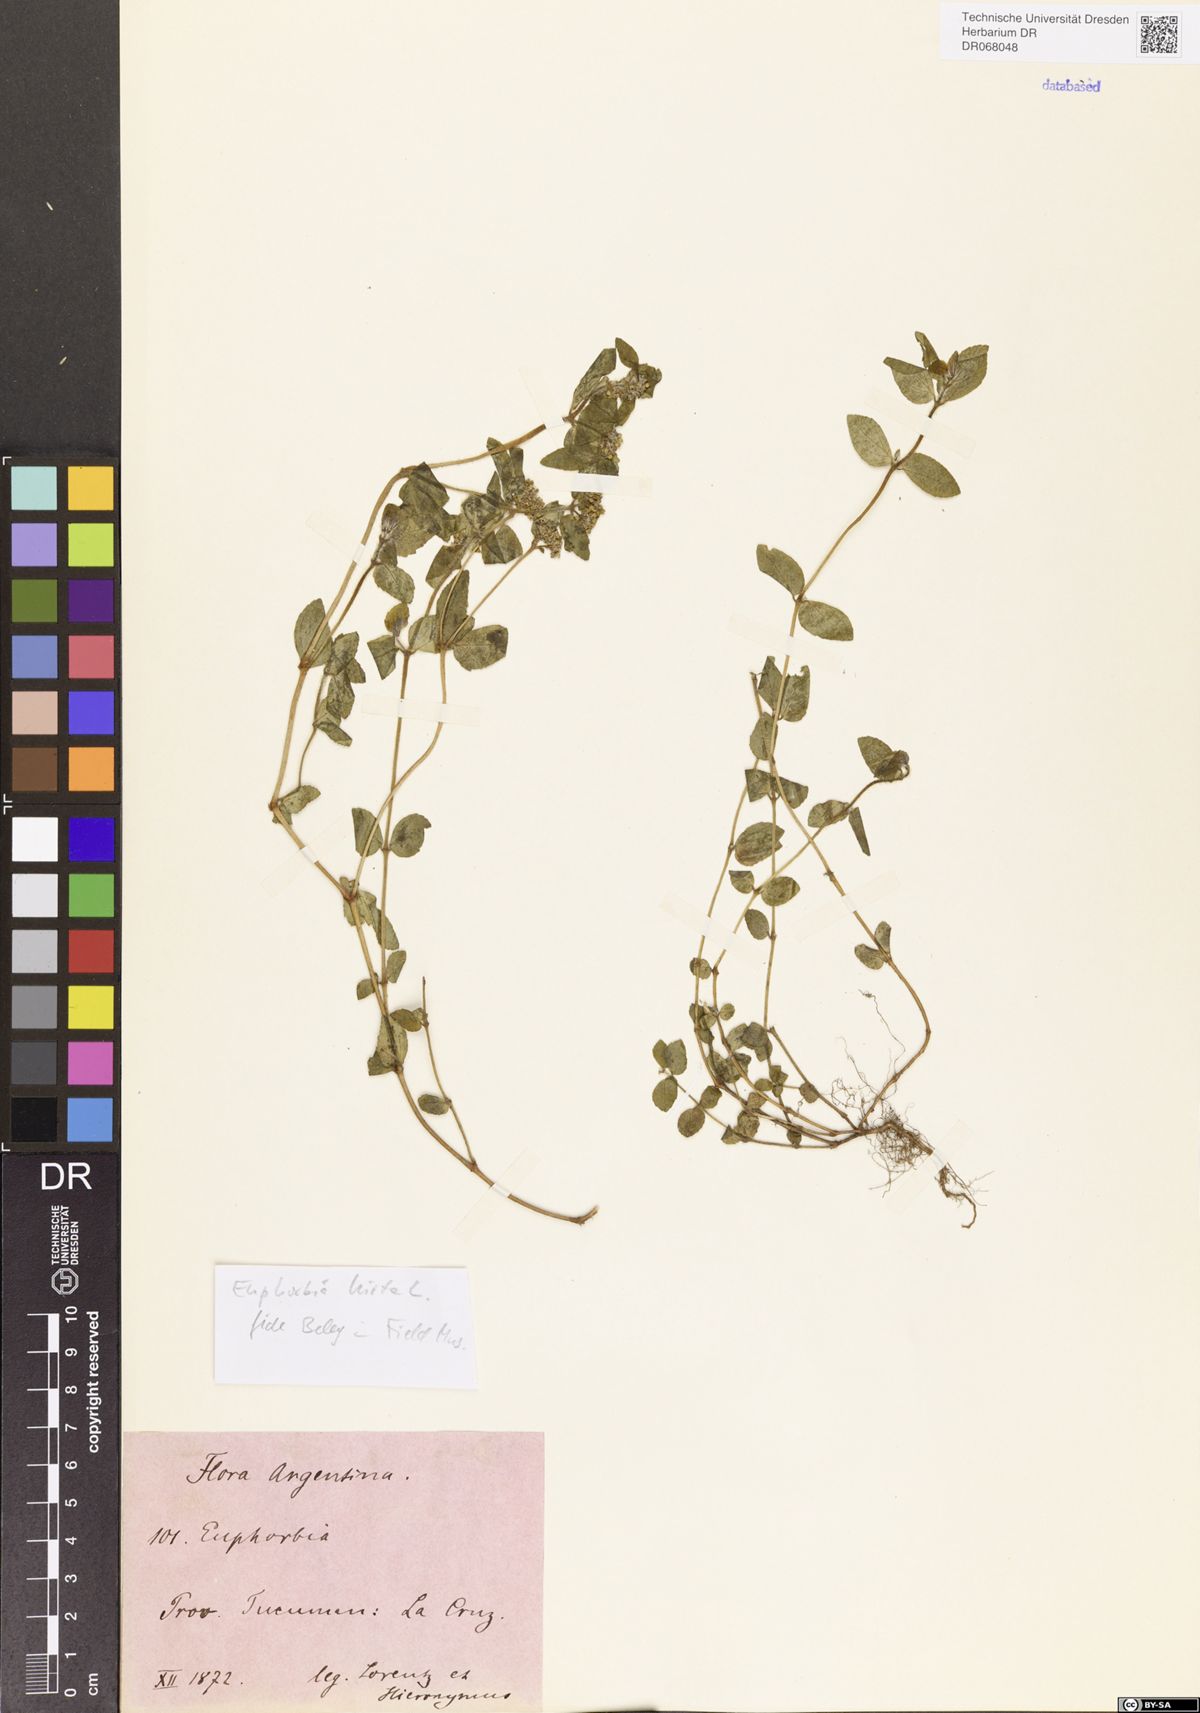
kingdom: Plantae
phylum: Tracheophyta
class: Magnoliopsida
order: Malpighiales
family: Euphorbiaceae
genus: Euphorbia
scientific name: Euphorbia hirta
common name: Pillpod sandmat
